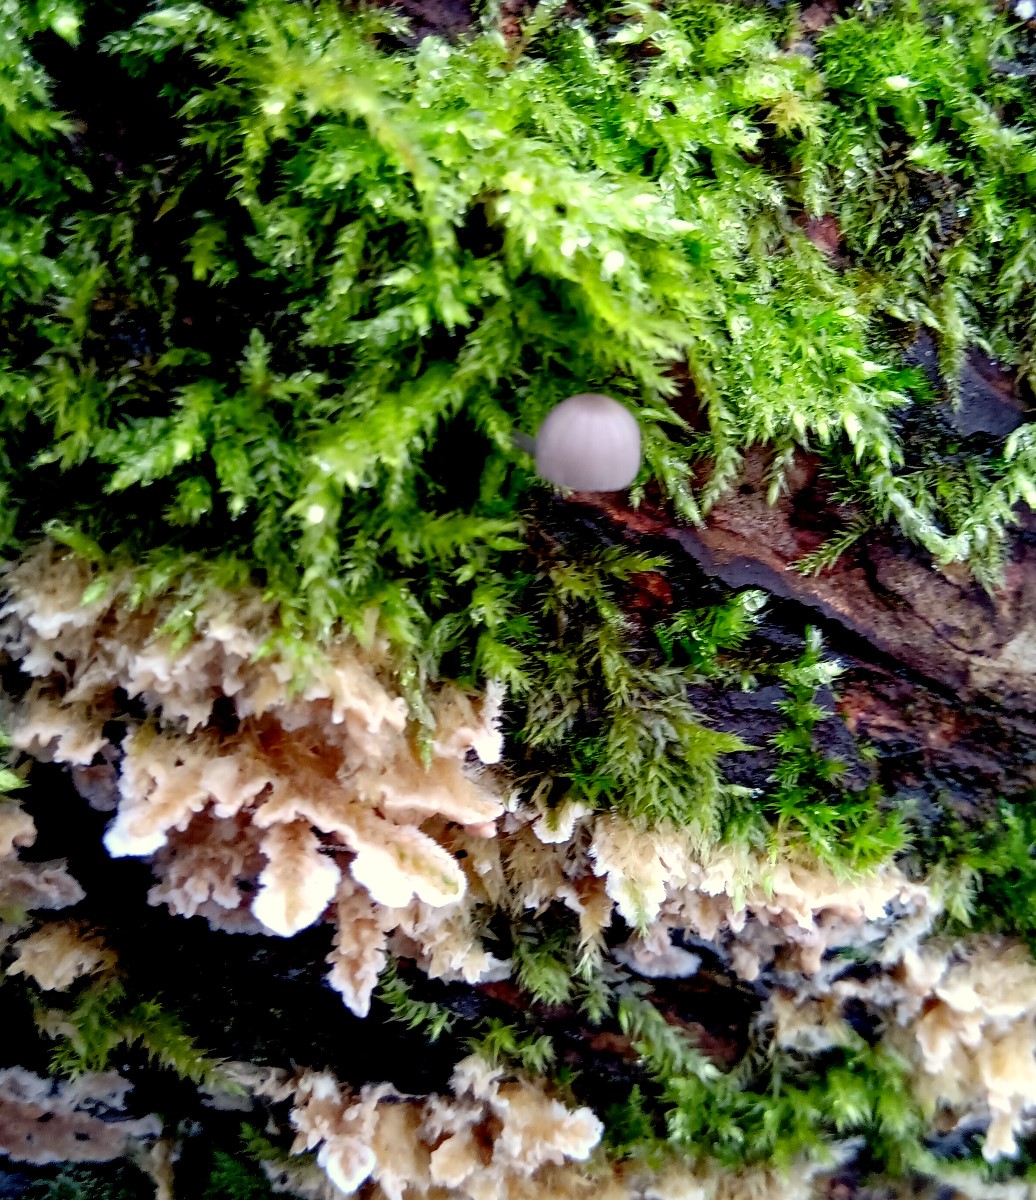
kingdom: Fungi
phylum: Basidiomycota
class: Agaricomycetes
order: Agaricales
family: Mycenaceae
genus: Mycena
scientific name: Mycena pseudocorticola
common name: gråblå bark-huesvamp
